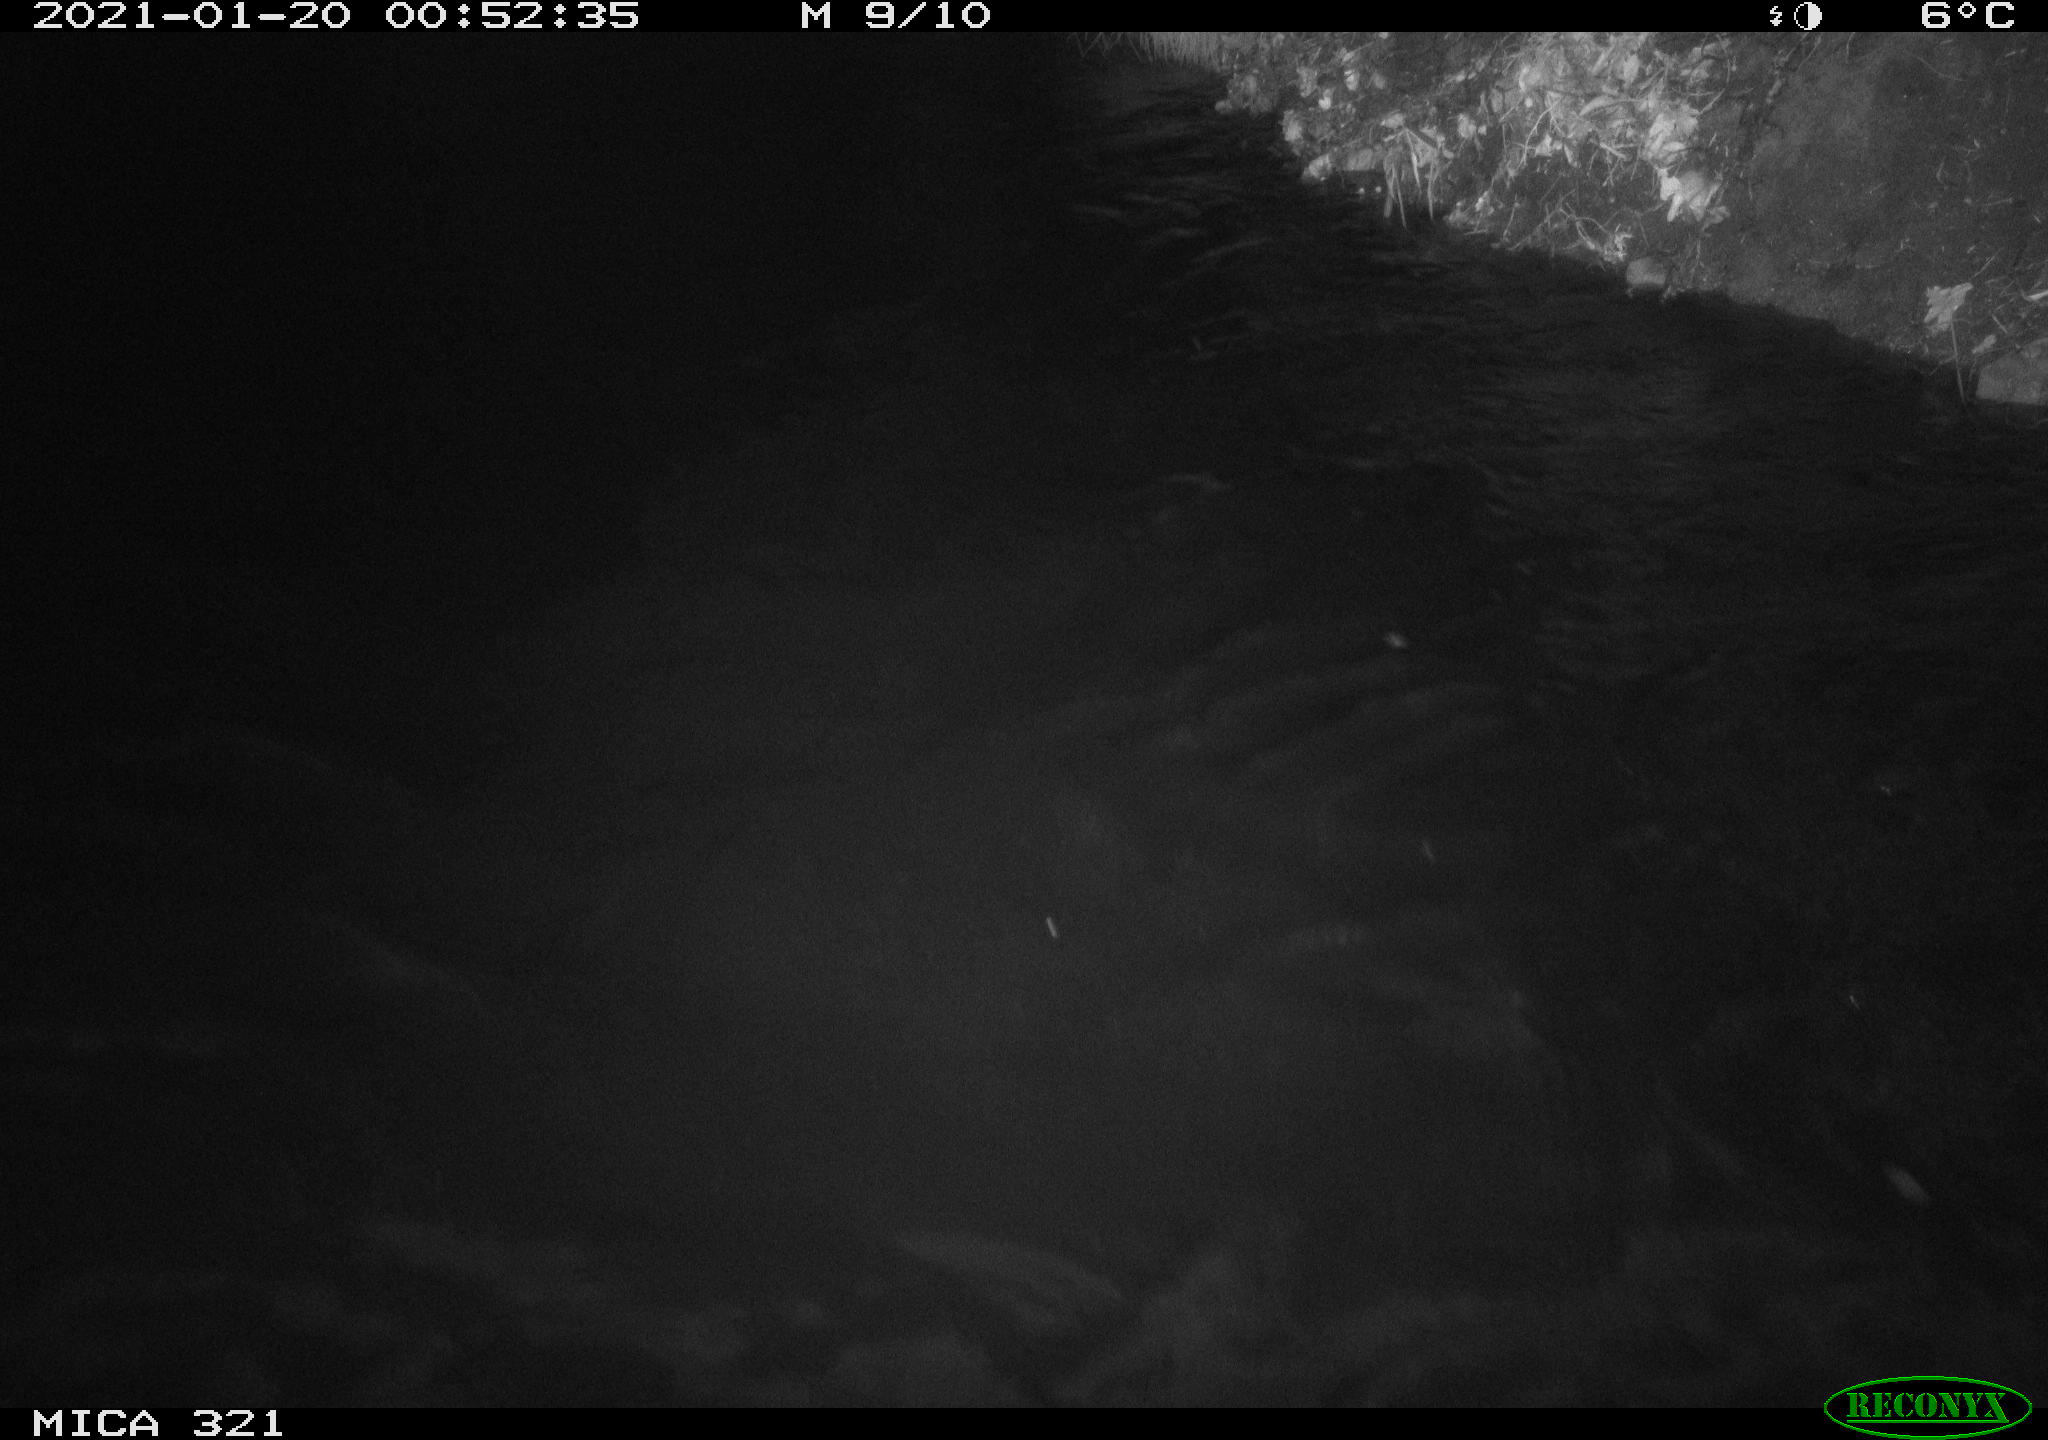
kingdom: Animalia
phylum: Chordata
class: Aves
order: Anseriformes
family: Anatidae
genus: Anas
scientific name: Anas platyrhynchos
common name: Mallard
